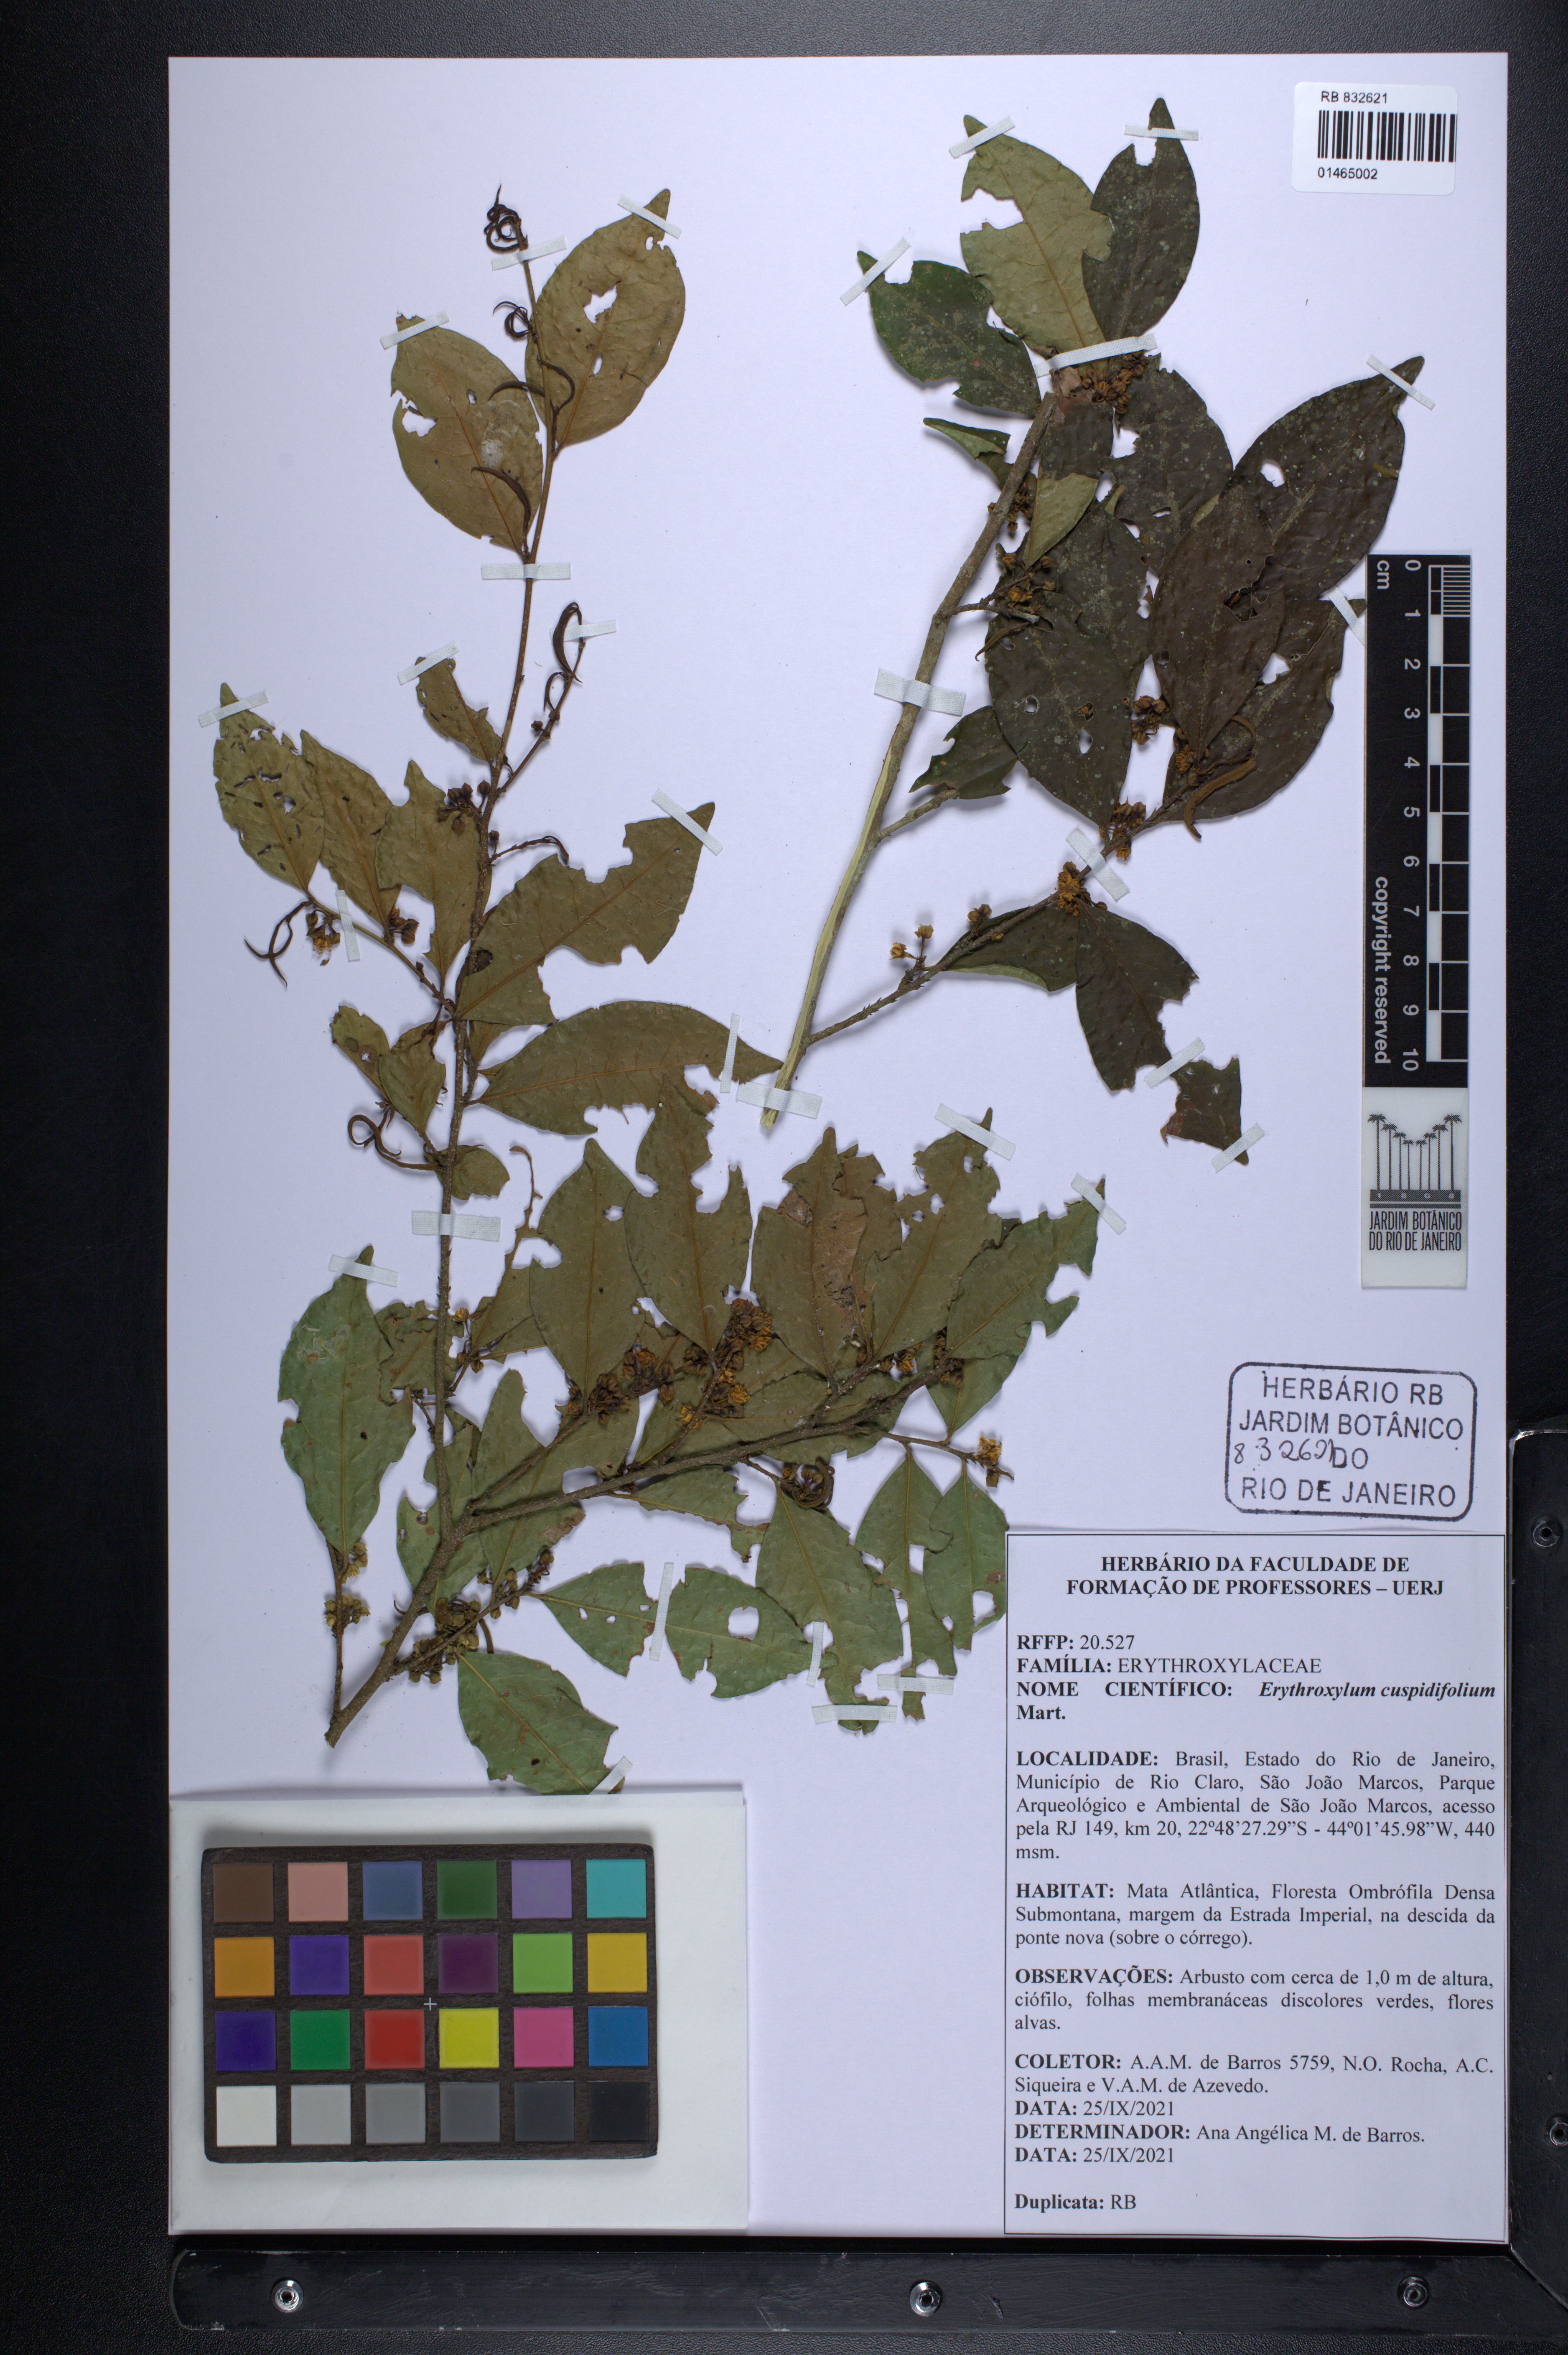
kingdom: Plantae
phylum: Tracheophyta
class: Magnoliopsida
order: Malpighiales
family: Erythroxylaceae
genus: Erythroxylum
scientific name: Erythroxylum cuspidifolium
